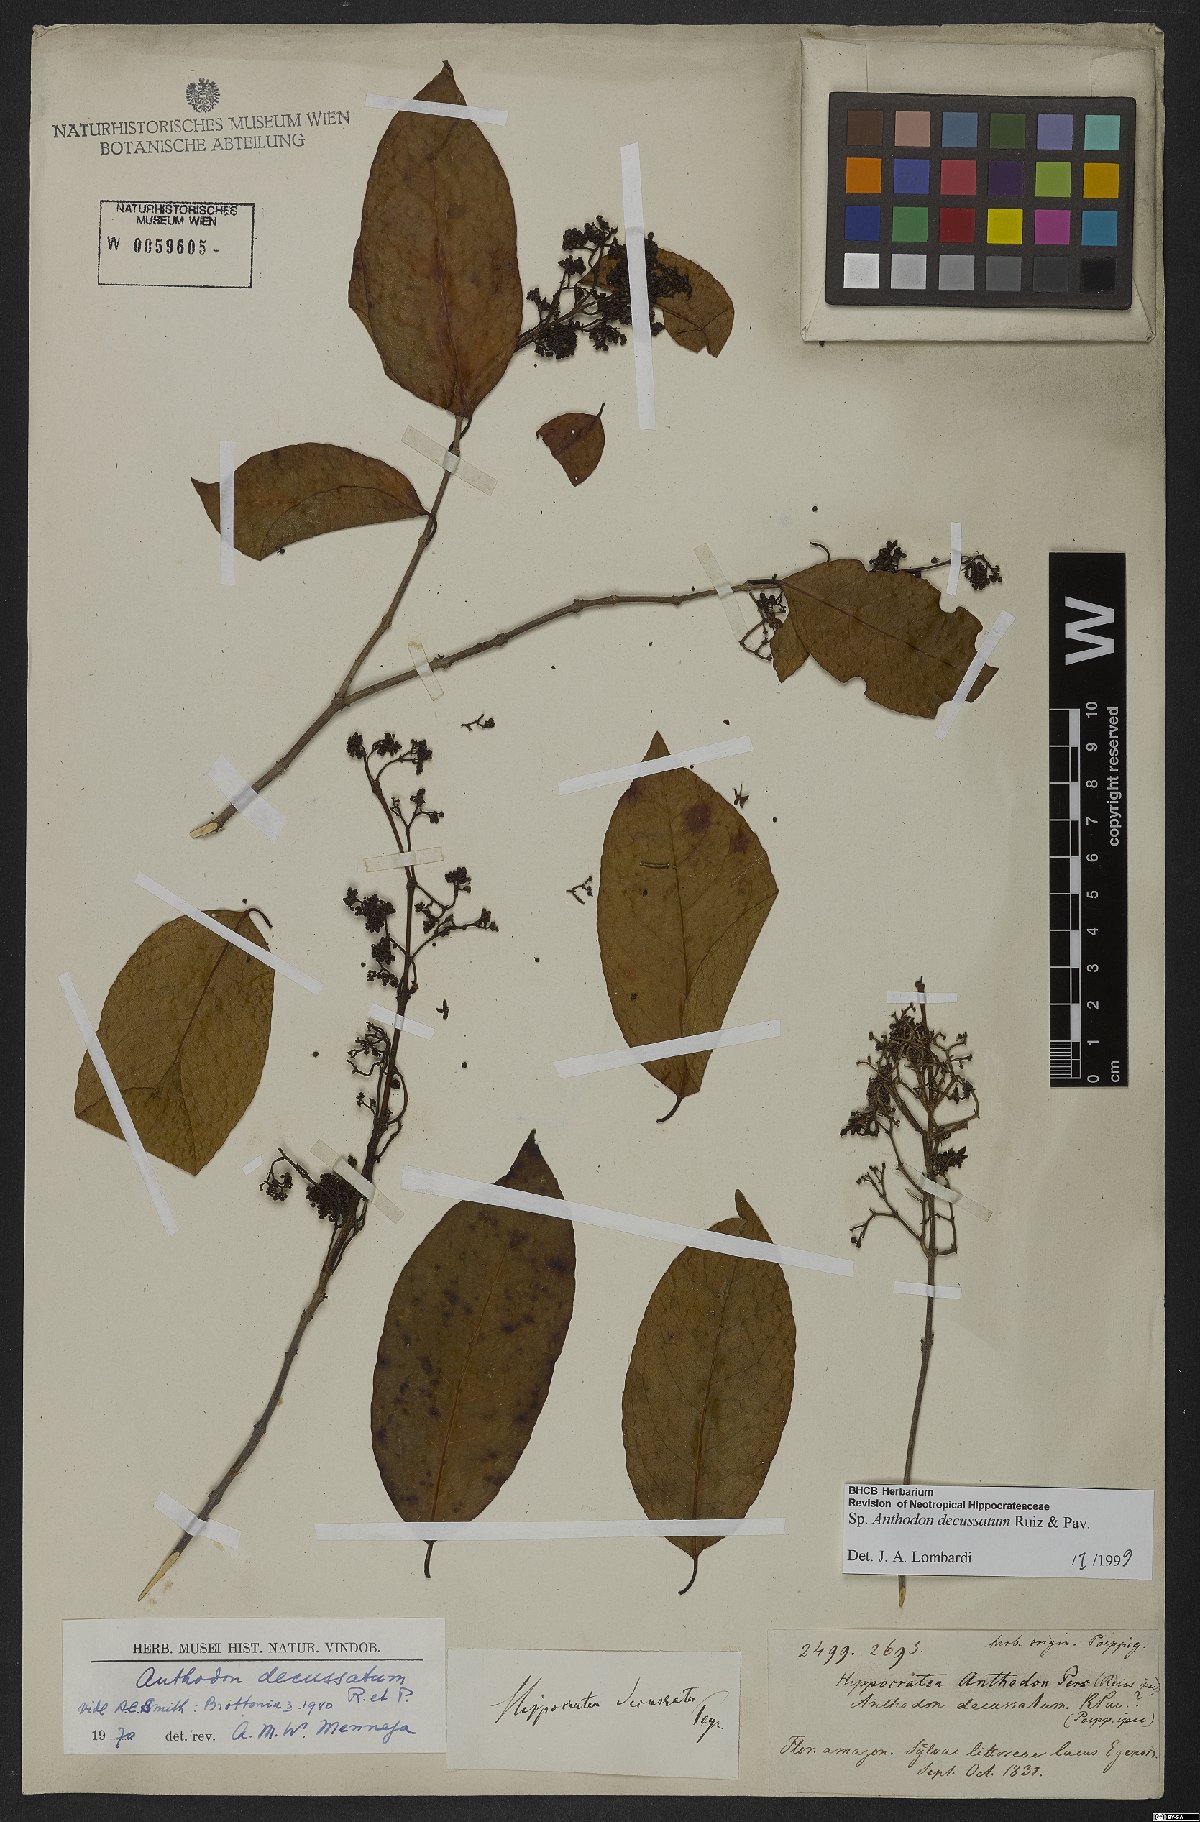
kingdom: Plantae
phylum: Tracheophyta
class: Magnoliopsida
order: Celastrales
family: Celastraceae
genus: Anthodon
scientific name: Anthodon decussatum
